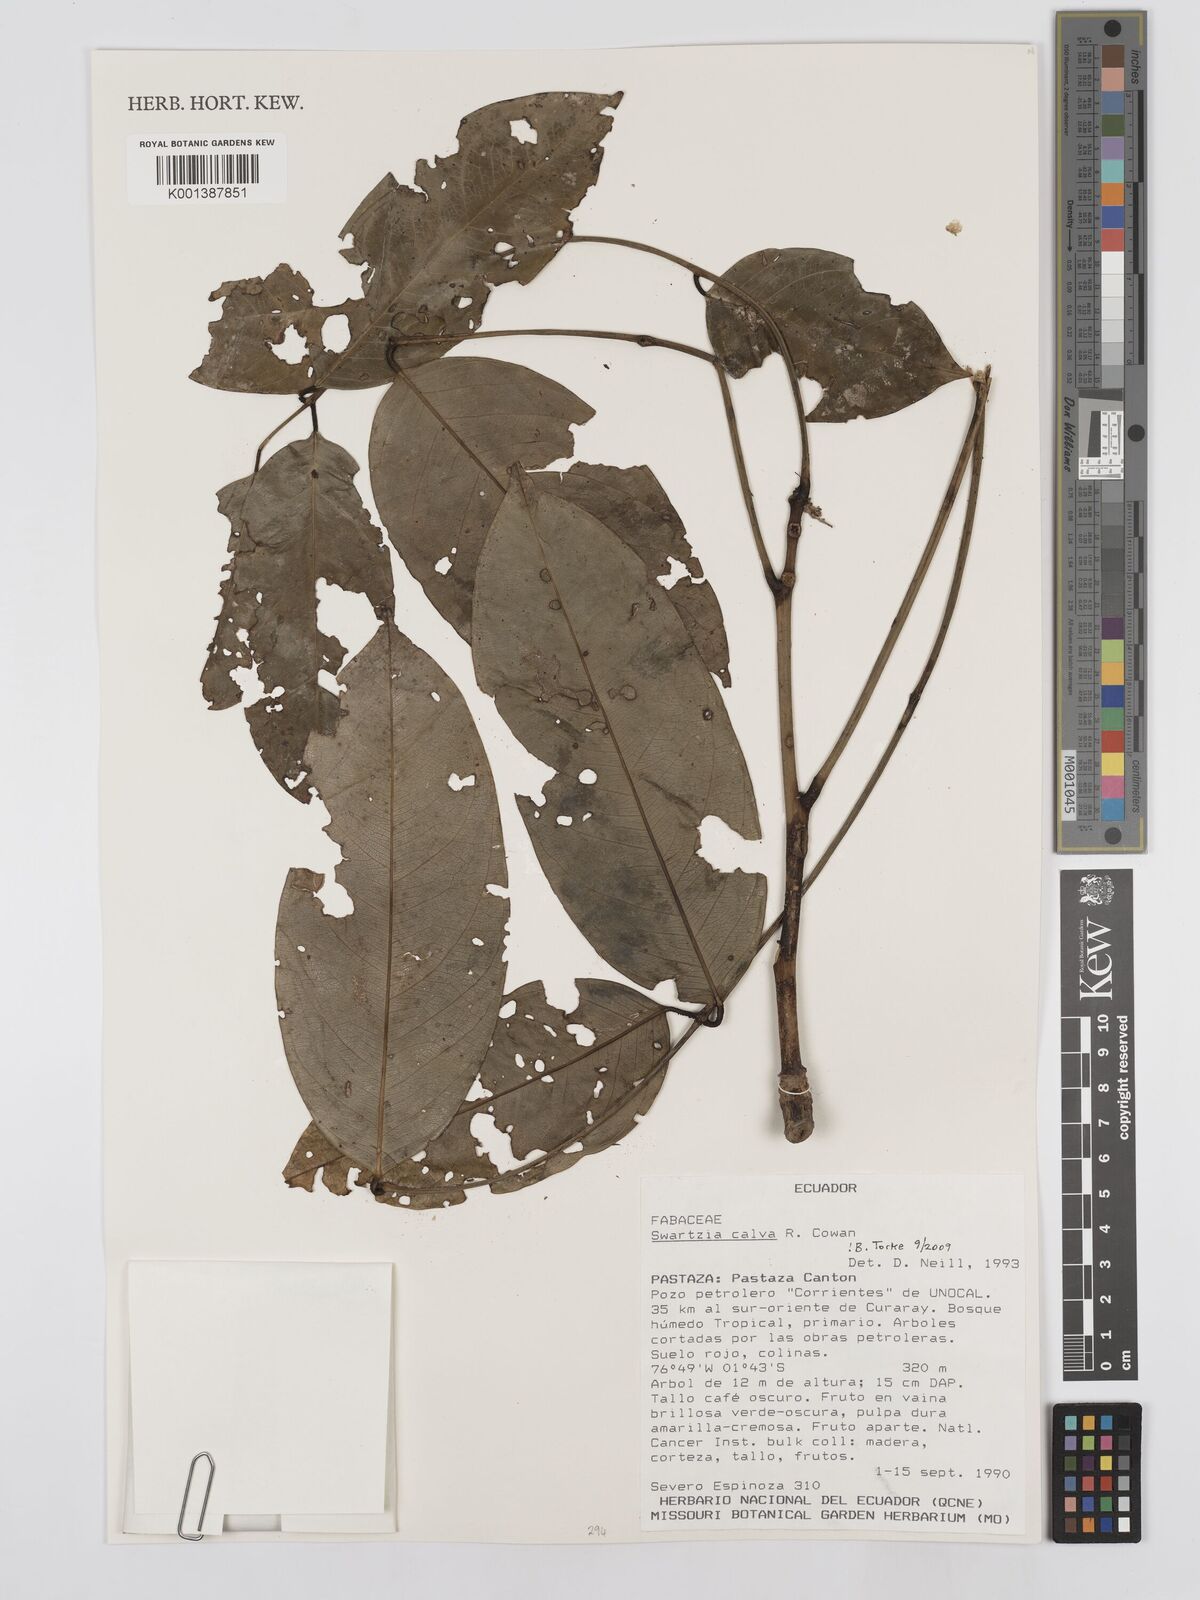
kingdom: Plantae
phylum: Tracheophyta
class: Magnoliopsida
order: Fabales
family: Fabaceae
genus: Swartzia
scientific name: Swartzia calva
